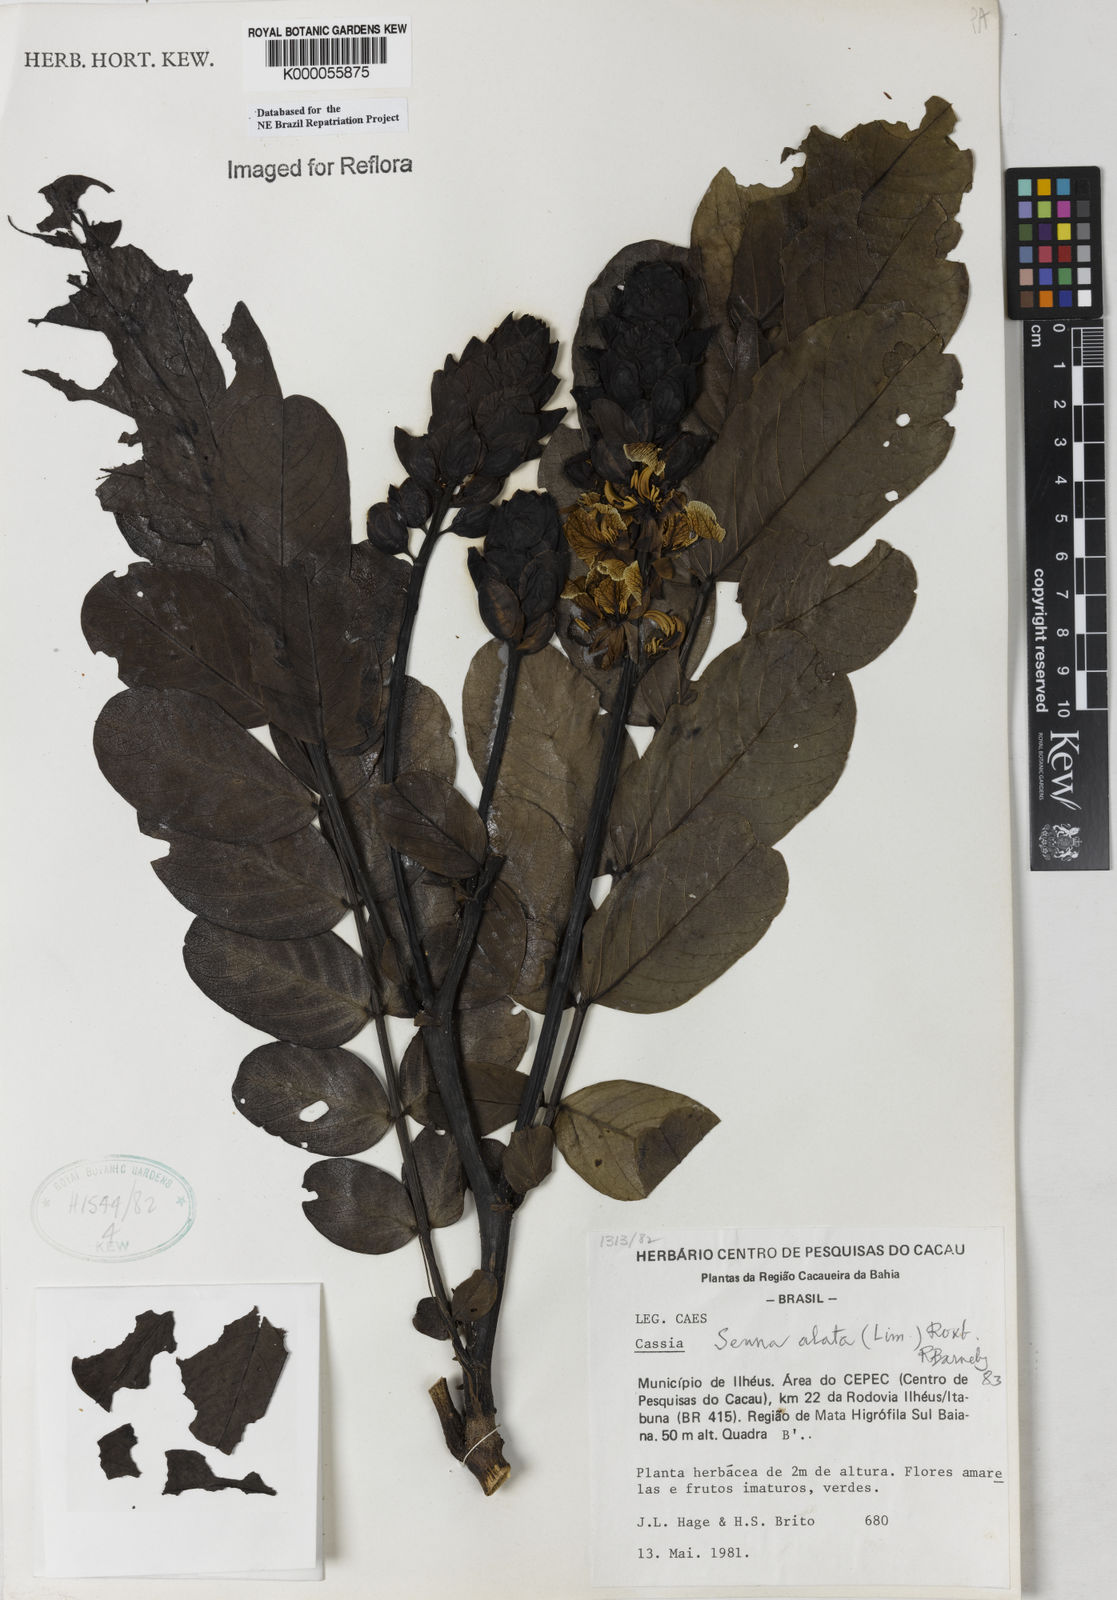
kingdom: Plantae
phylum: Tracheophyta
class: Magnoliopsida
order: Fabales
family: Fabaceae
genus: Senna
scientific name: Senna alata
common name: Emperor's candlesticks
